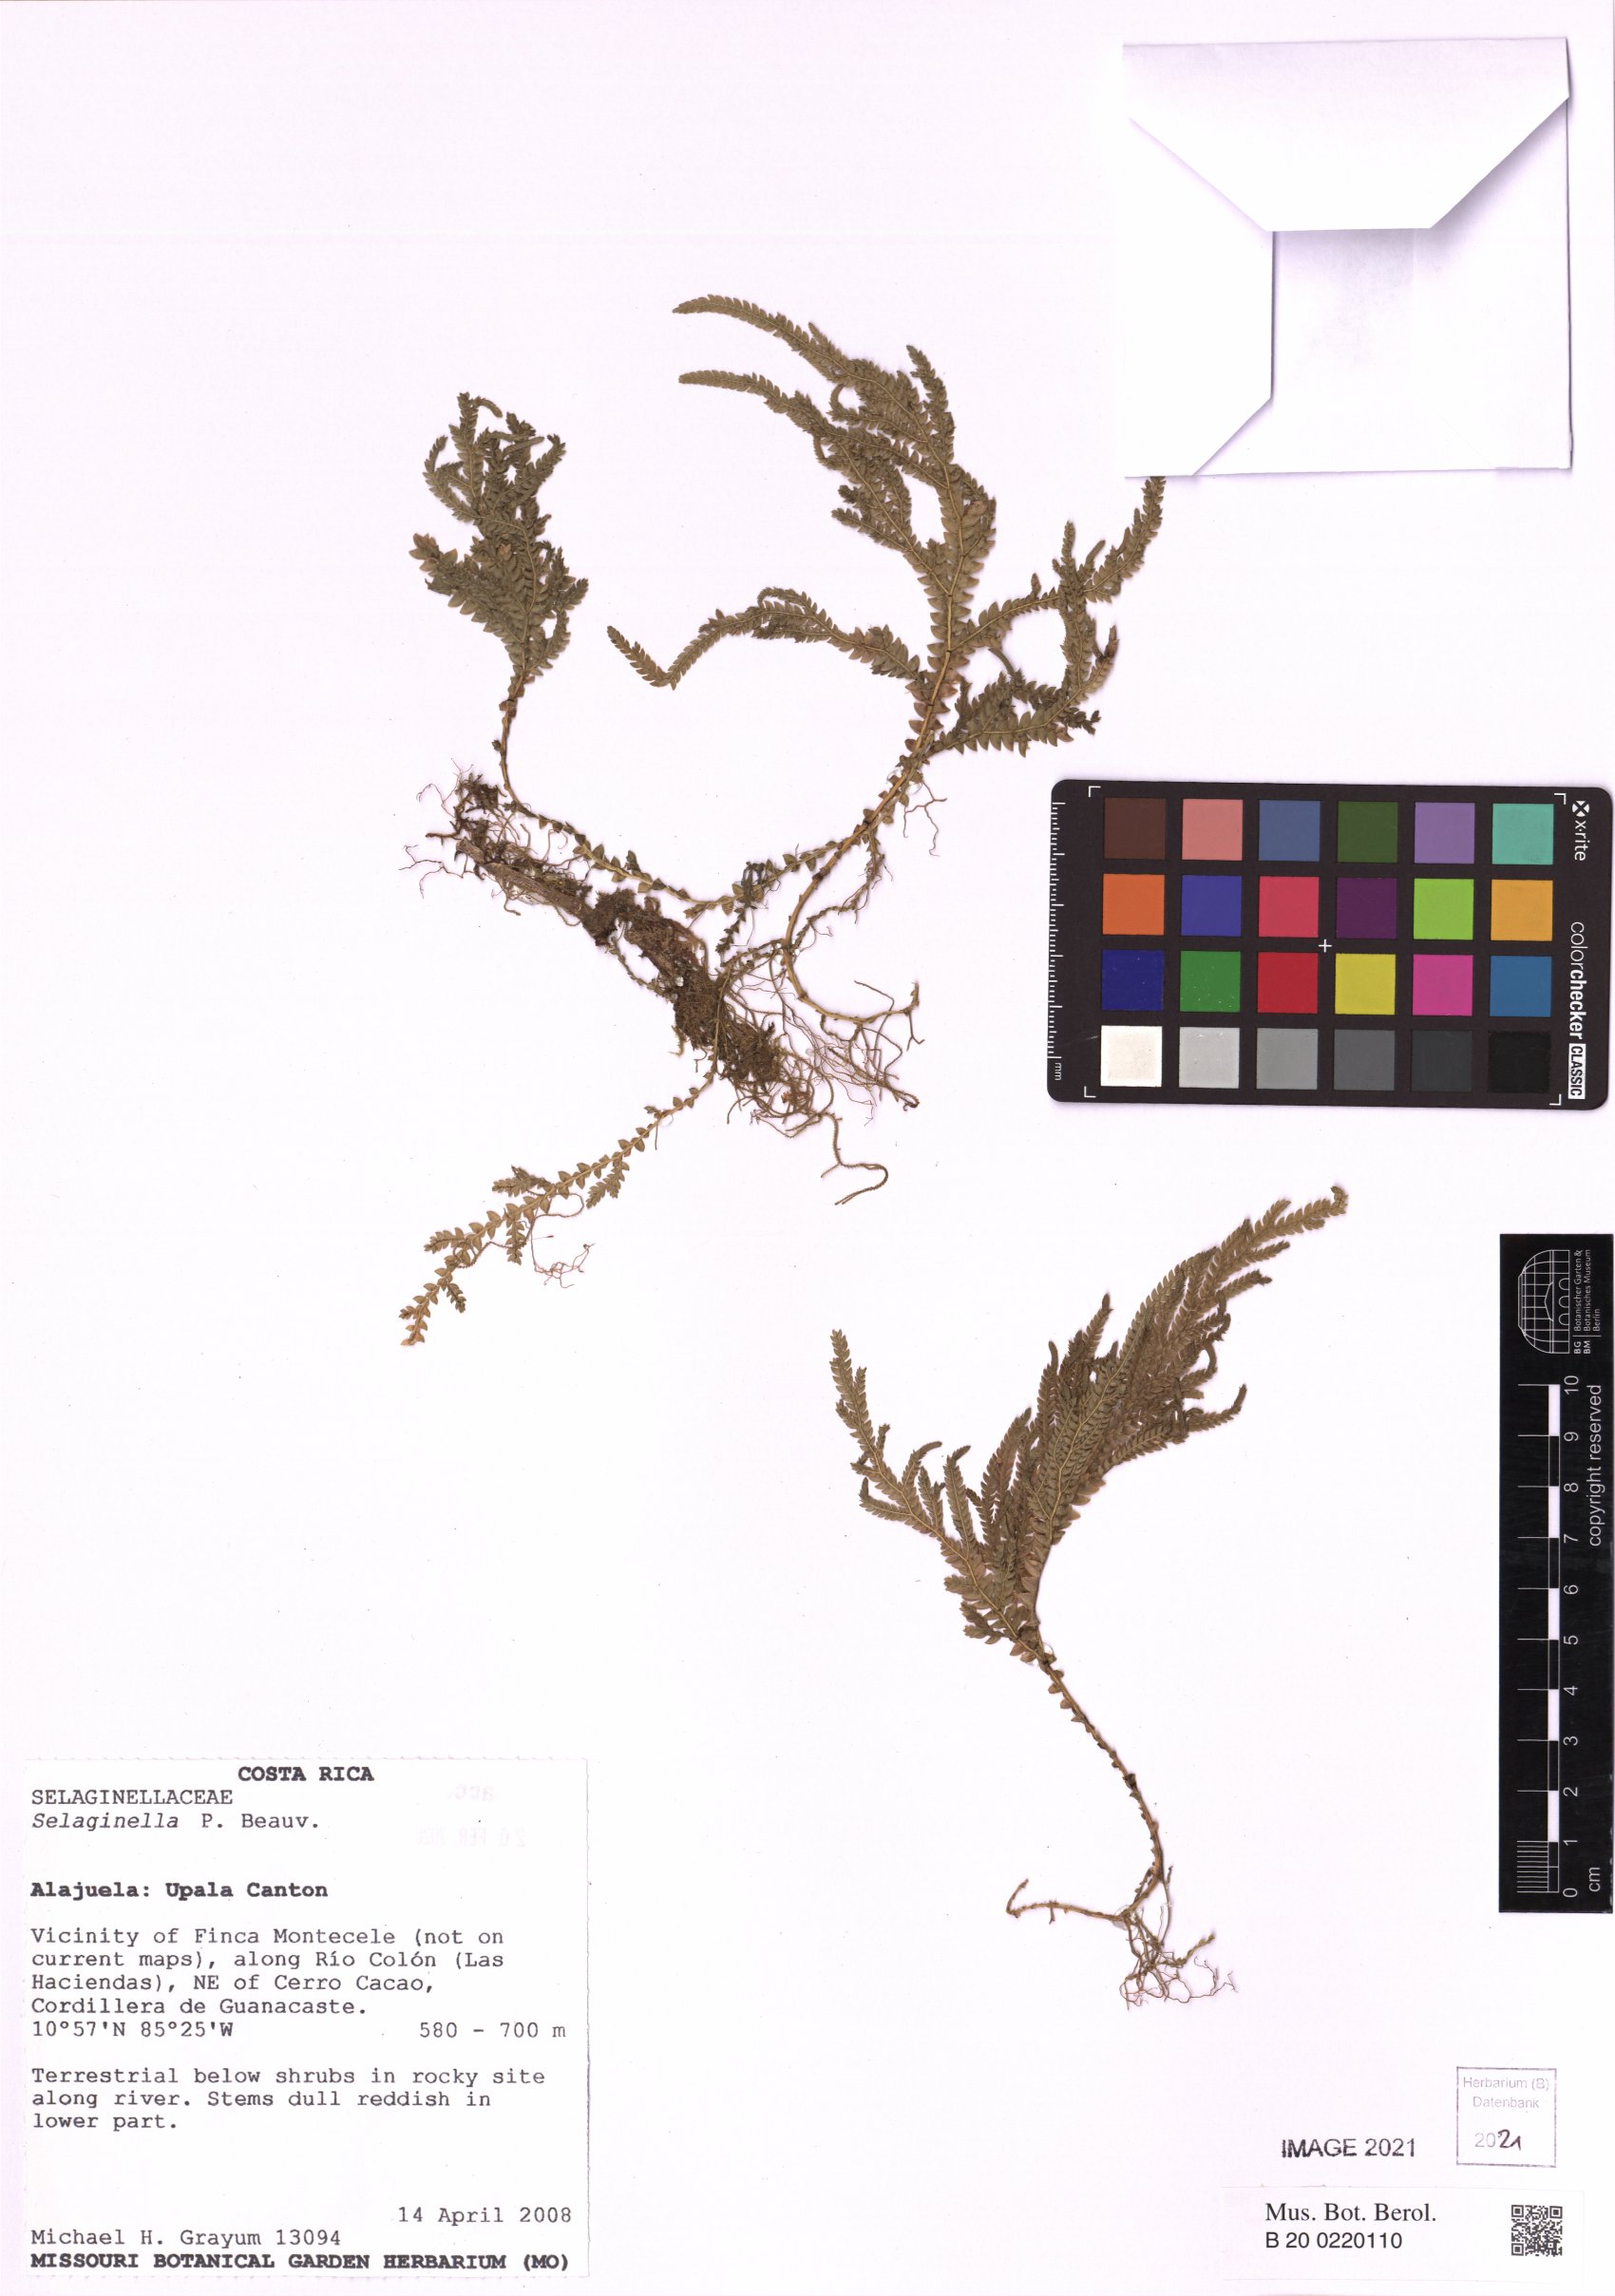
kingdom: Plantae
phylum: Tracheophyta
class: Lycopodiopsida
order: Selaginellales
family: Selaginellaceae
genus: Selaginella
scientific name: Selaginella
